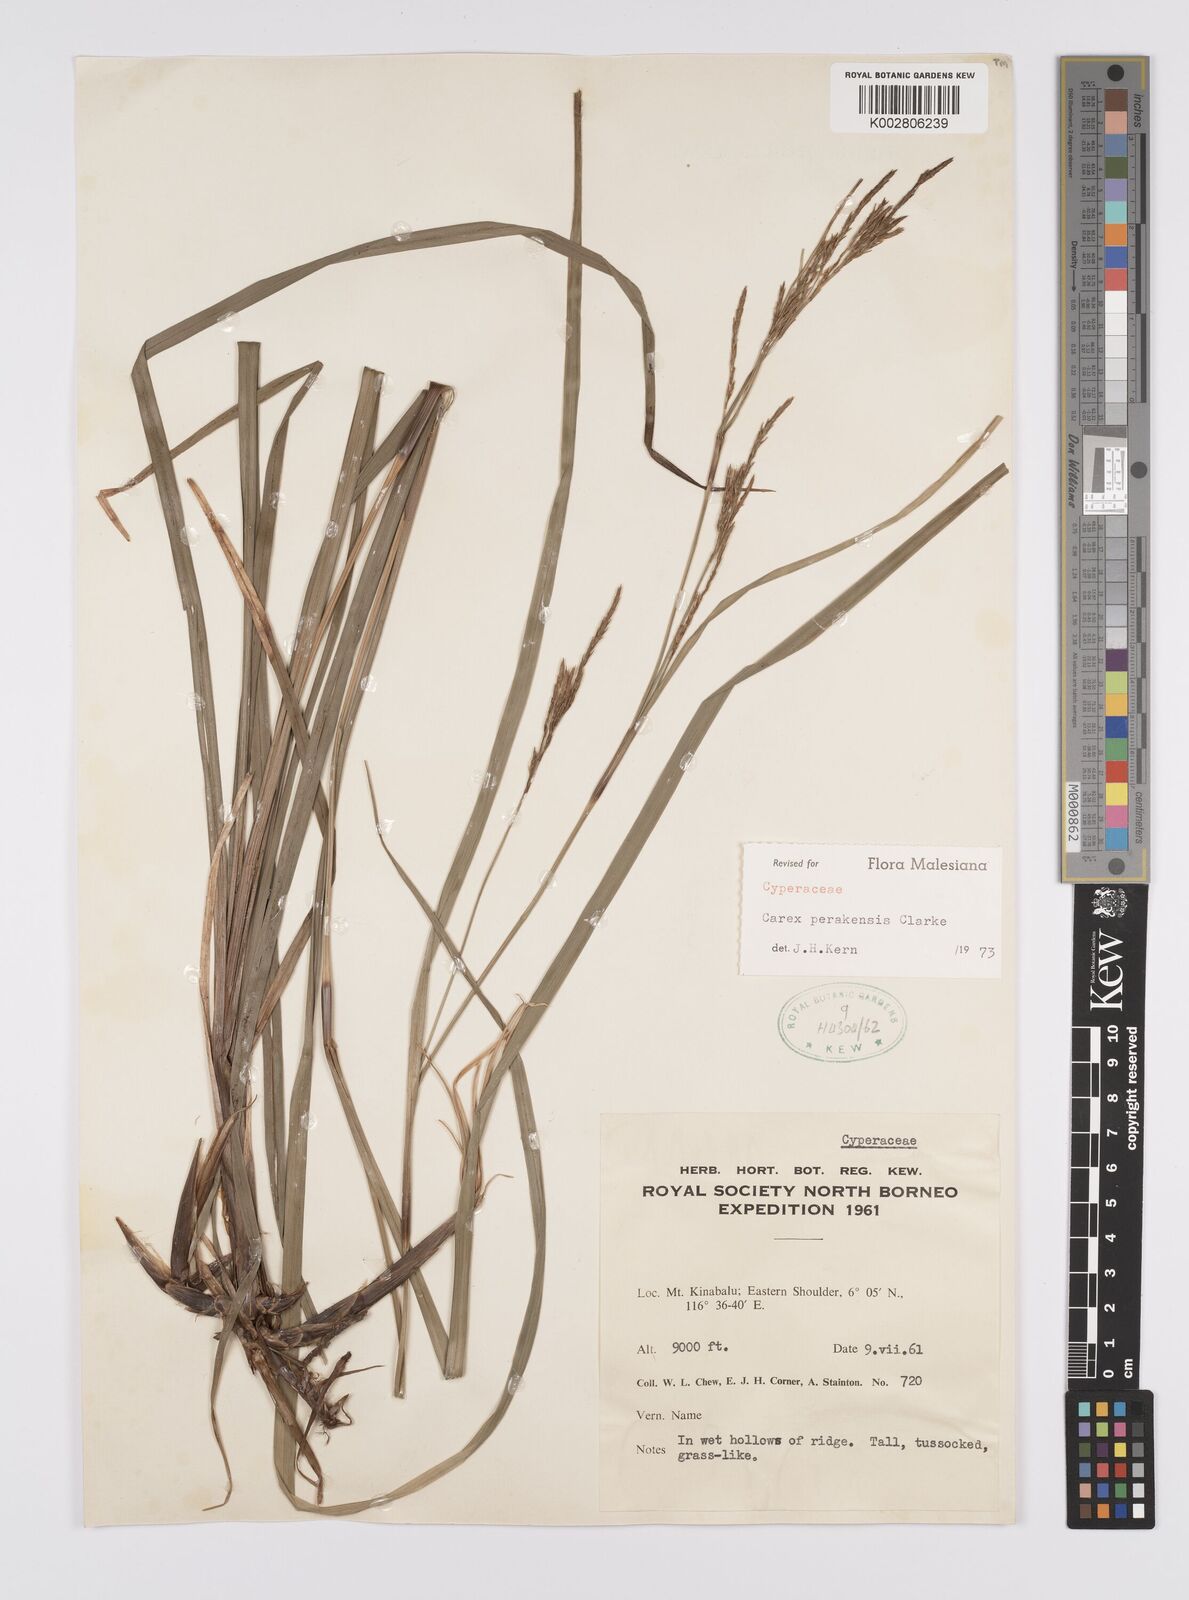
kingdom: Plantae
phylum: Tracheophyta
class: Liliopsida
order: Poales
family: Cyperaceae
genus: Carex
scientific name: Carex perakensis
